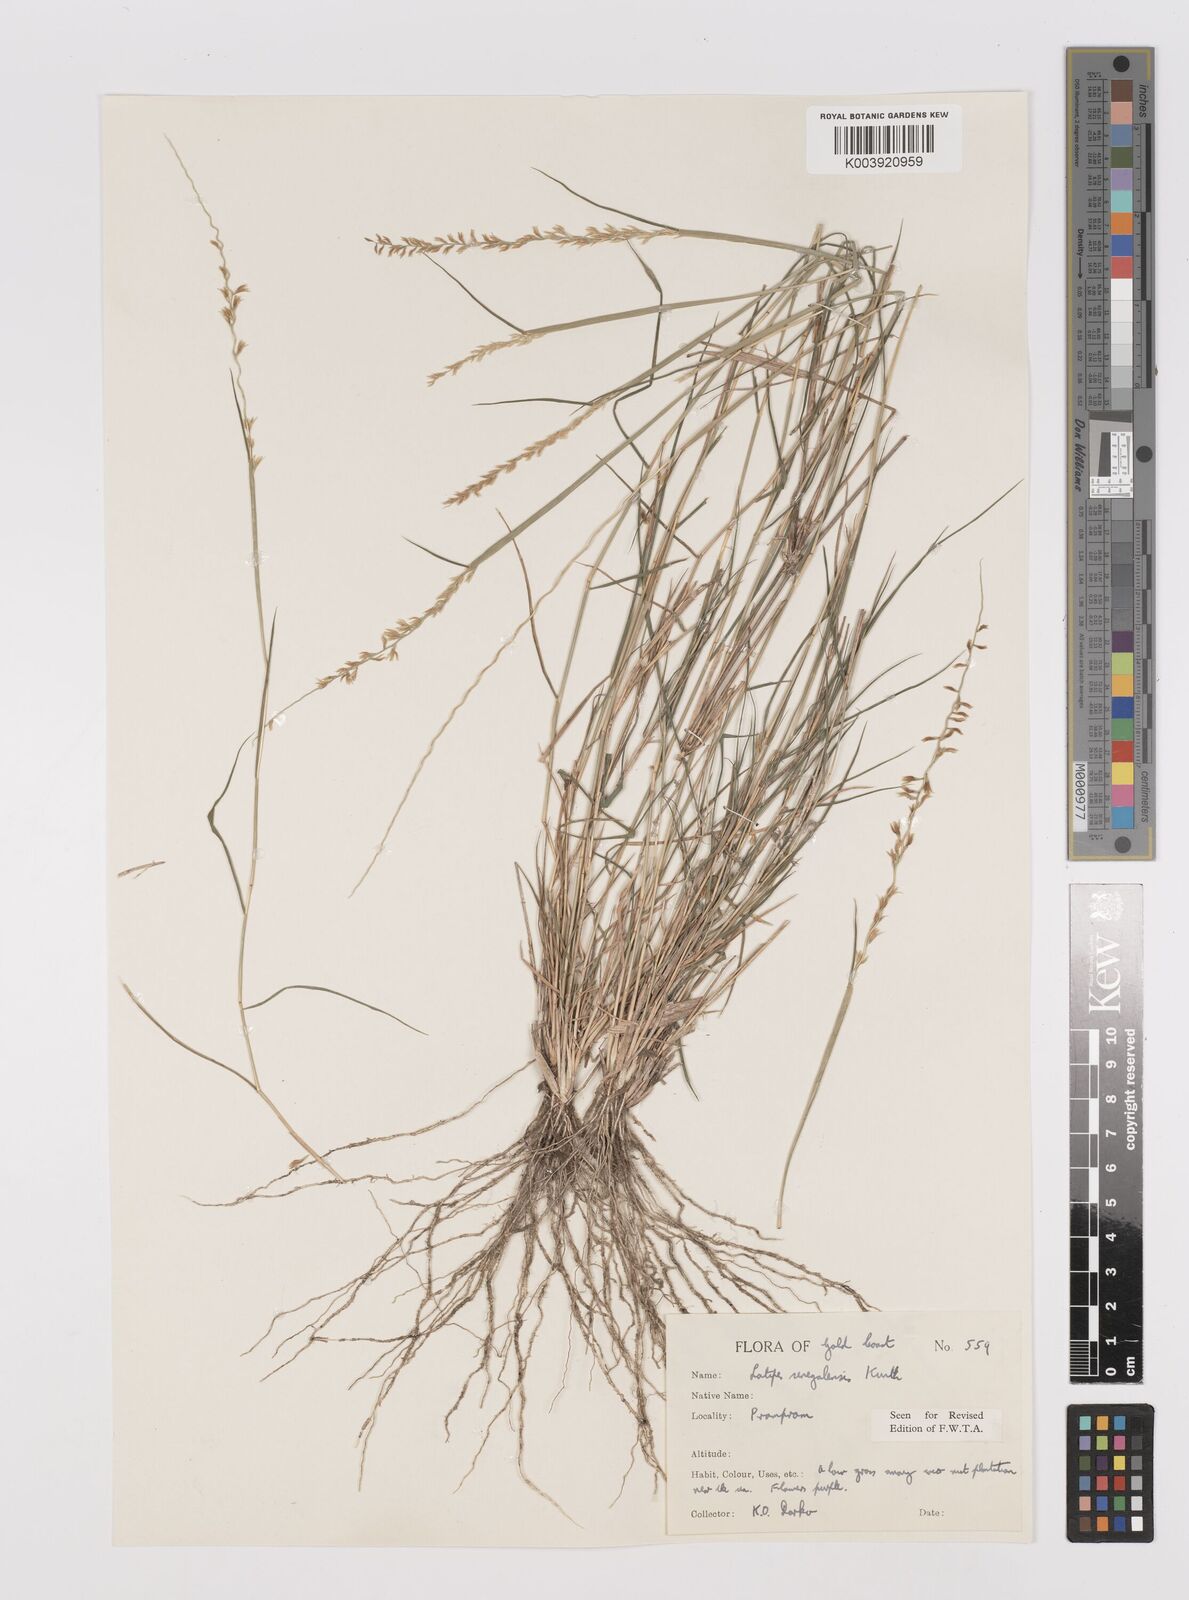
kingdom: Plantae
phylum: Tracheophyta
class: Liliopsida
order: Poales
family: Poaceae
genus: Leptothrium
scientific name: Leptothrium senegalense
